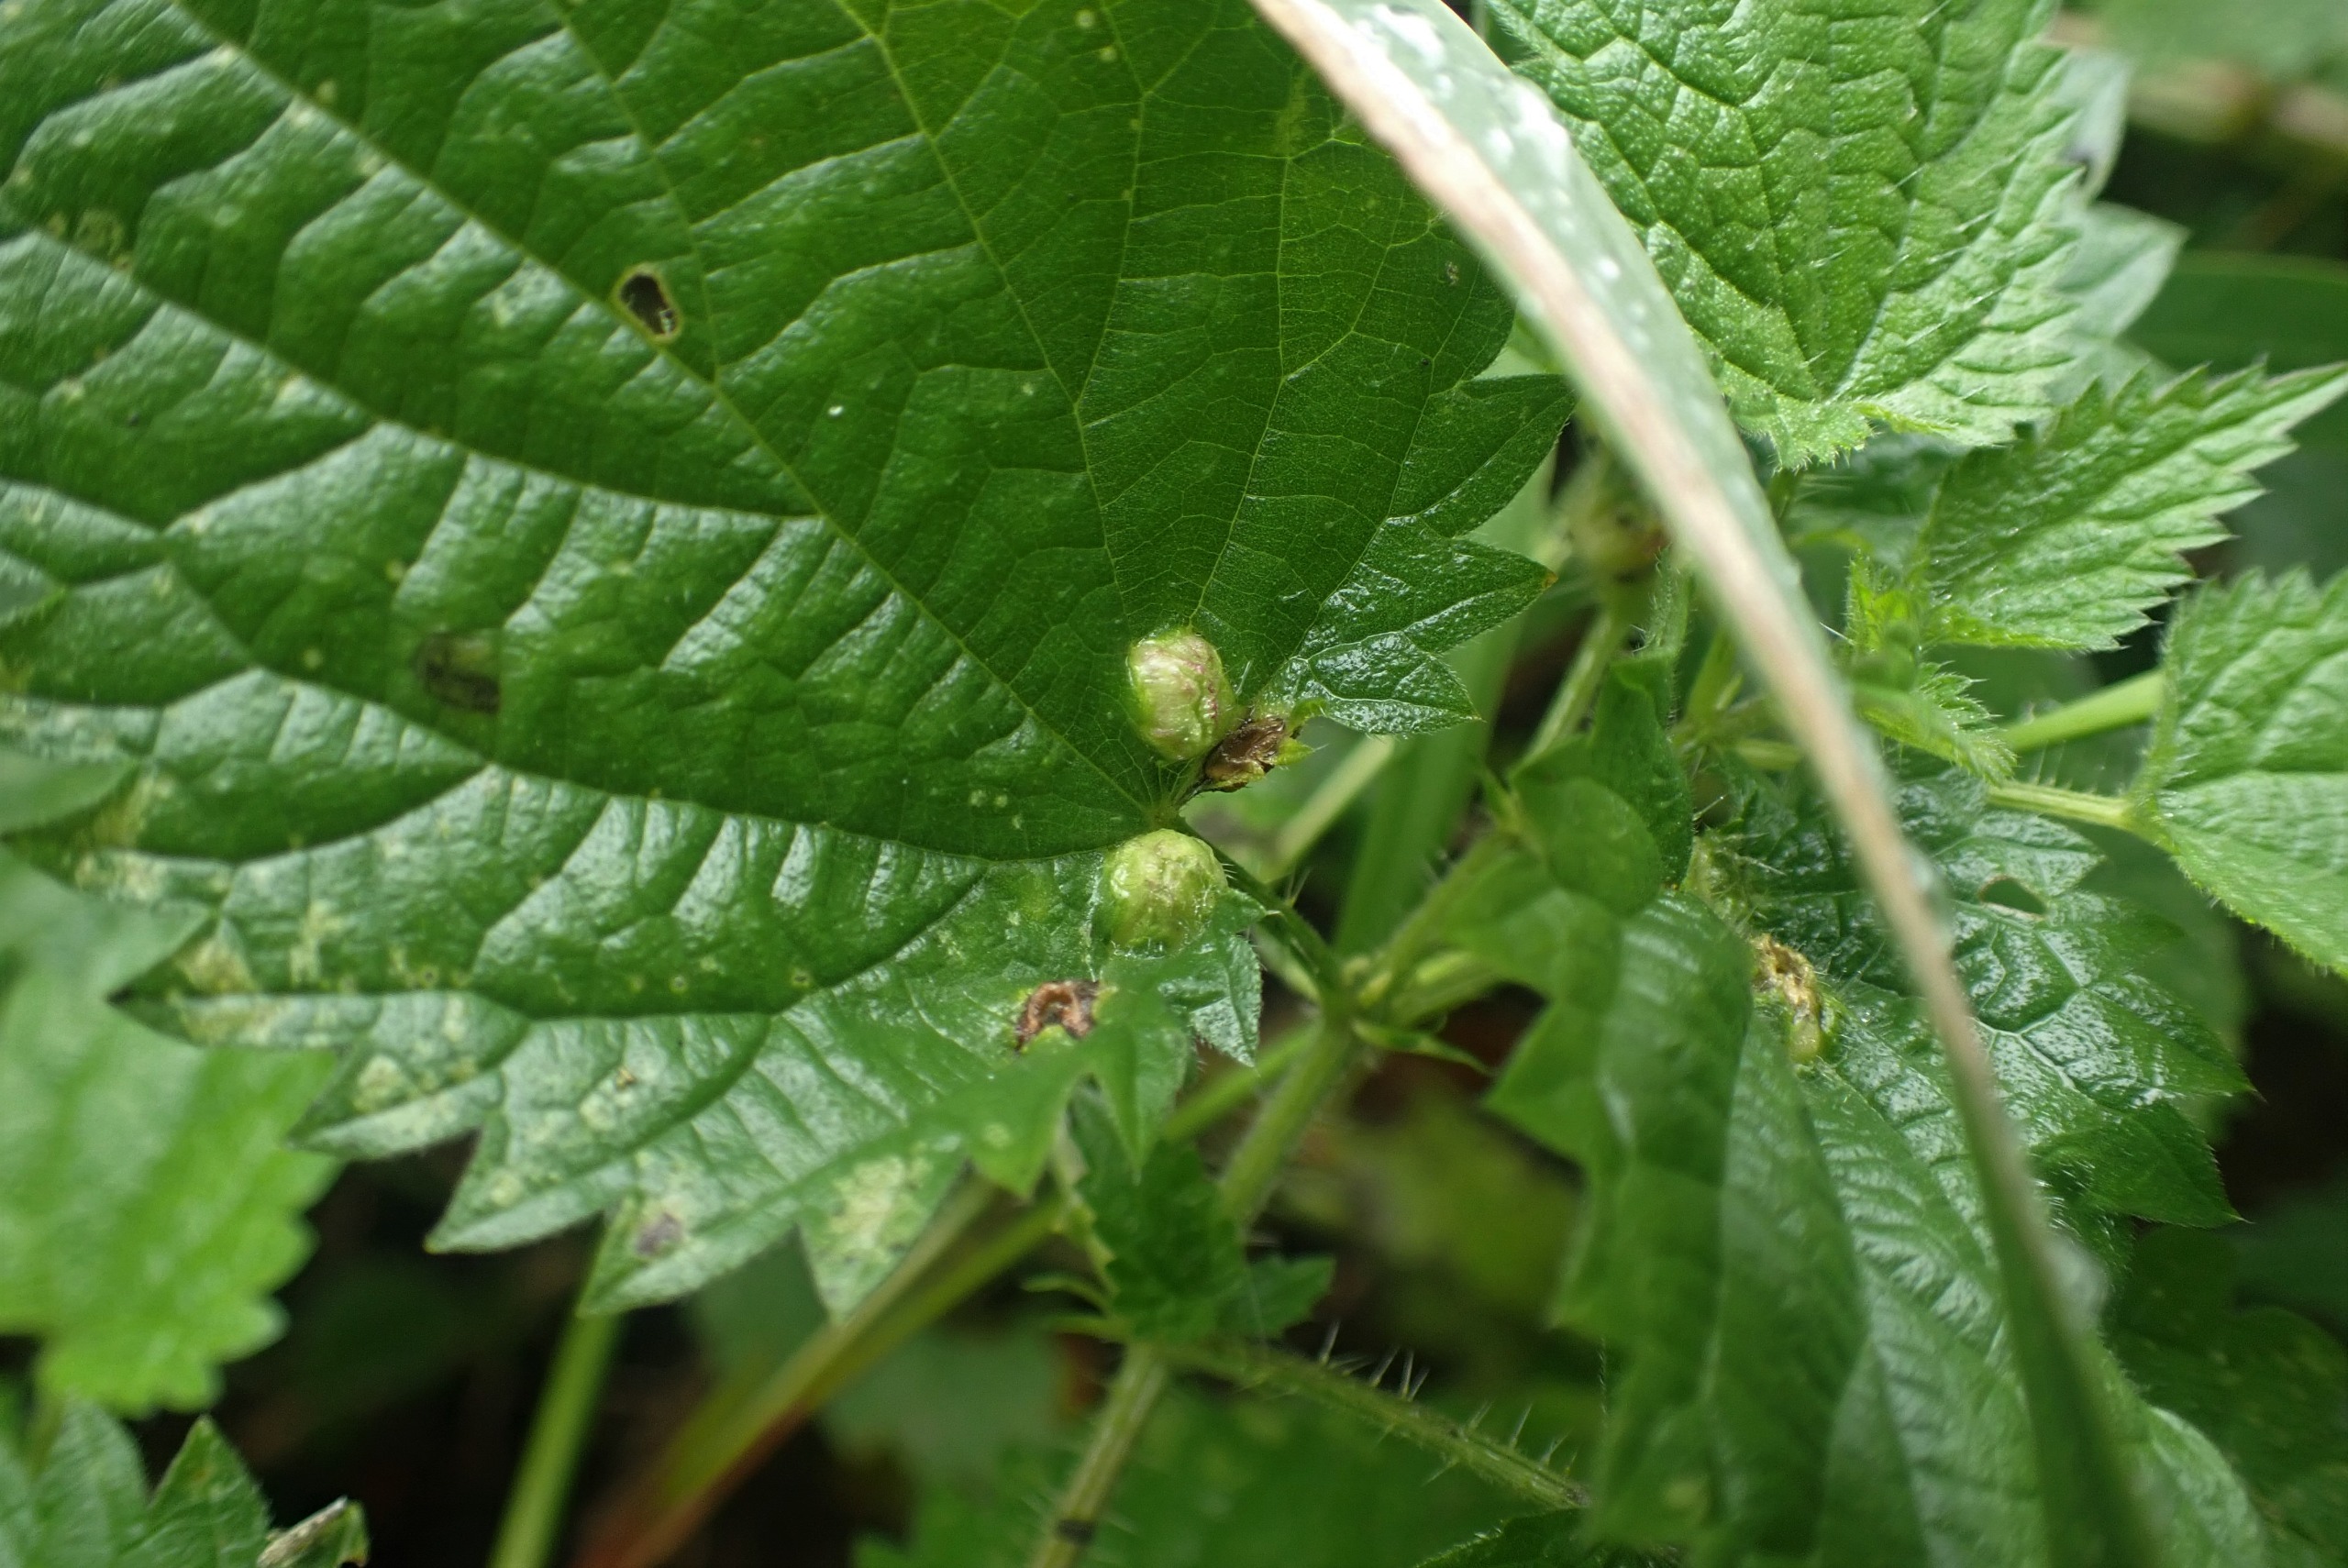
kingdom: Animalia
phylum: Arthropoda
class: Insecta
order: Diptera
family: Cecidomyiidae
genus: Dasineura
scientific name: Dasineura urticae
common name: Nældepunggalmyg
